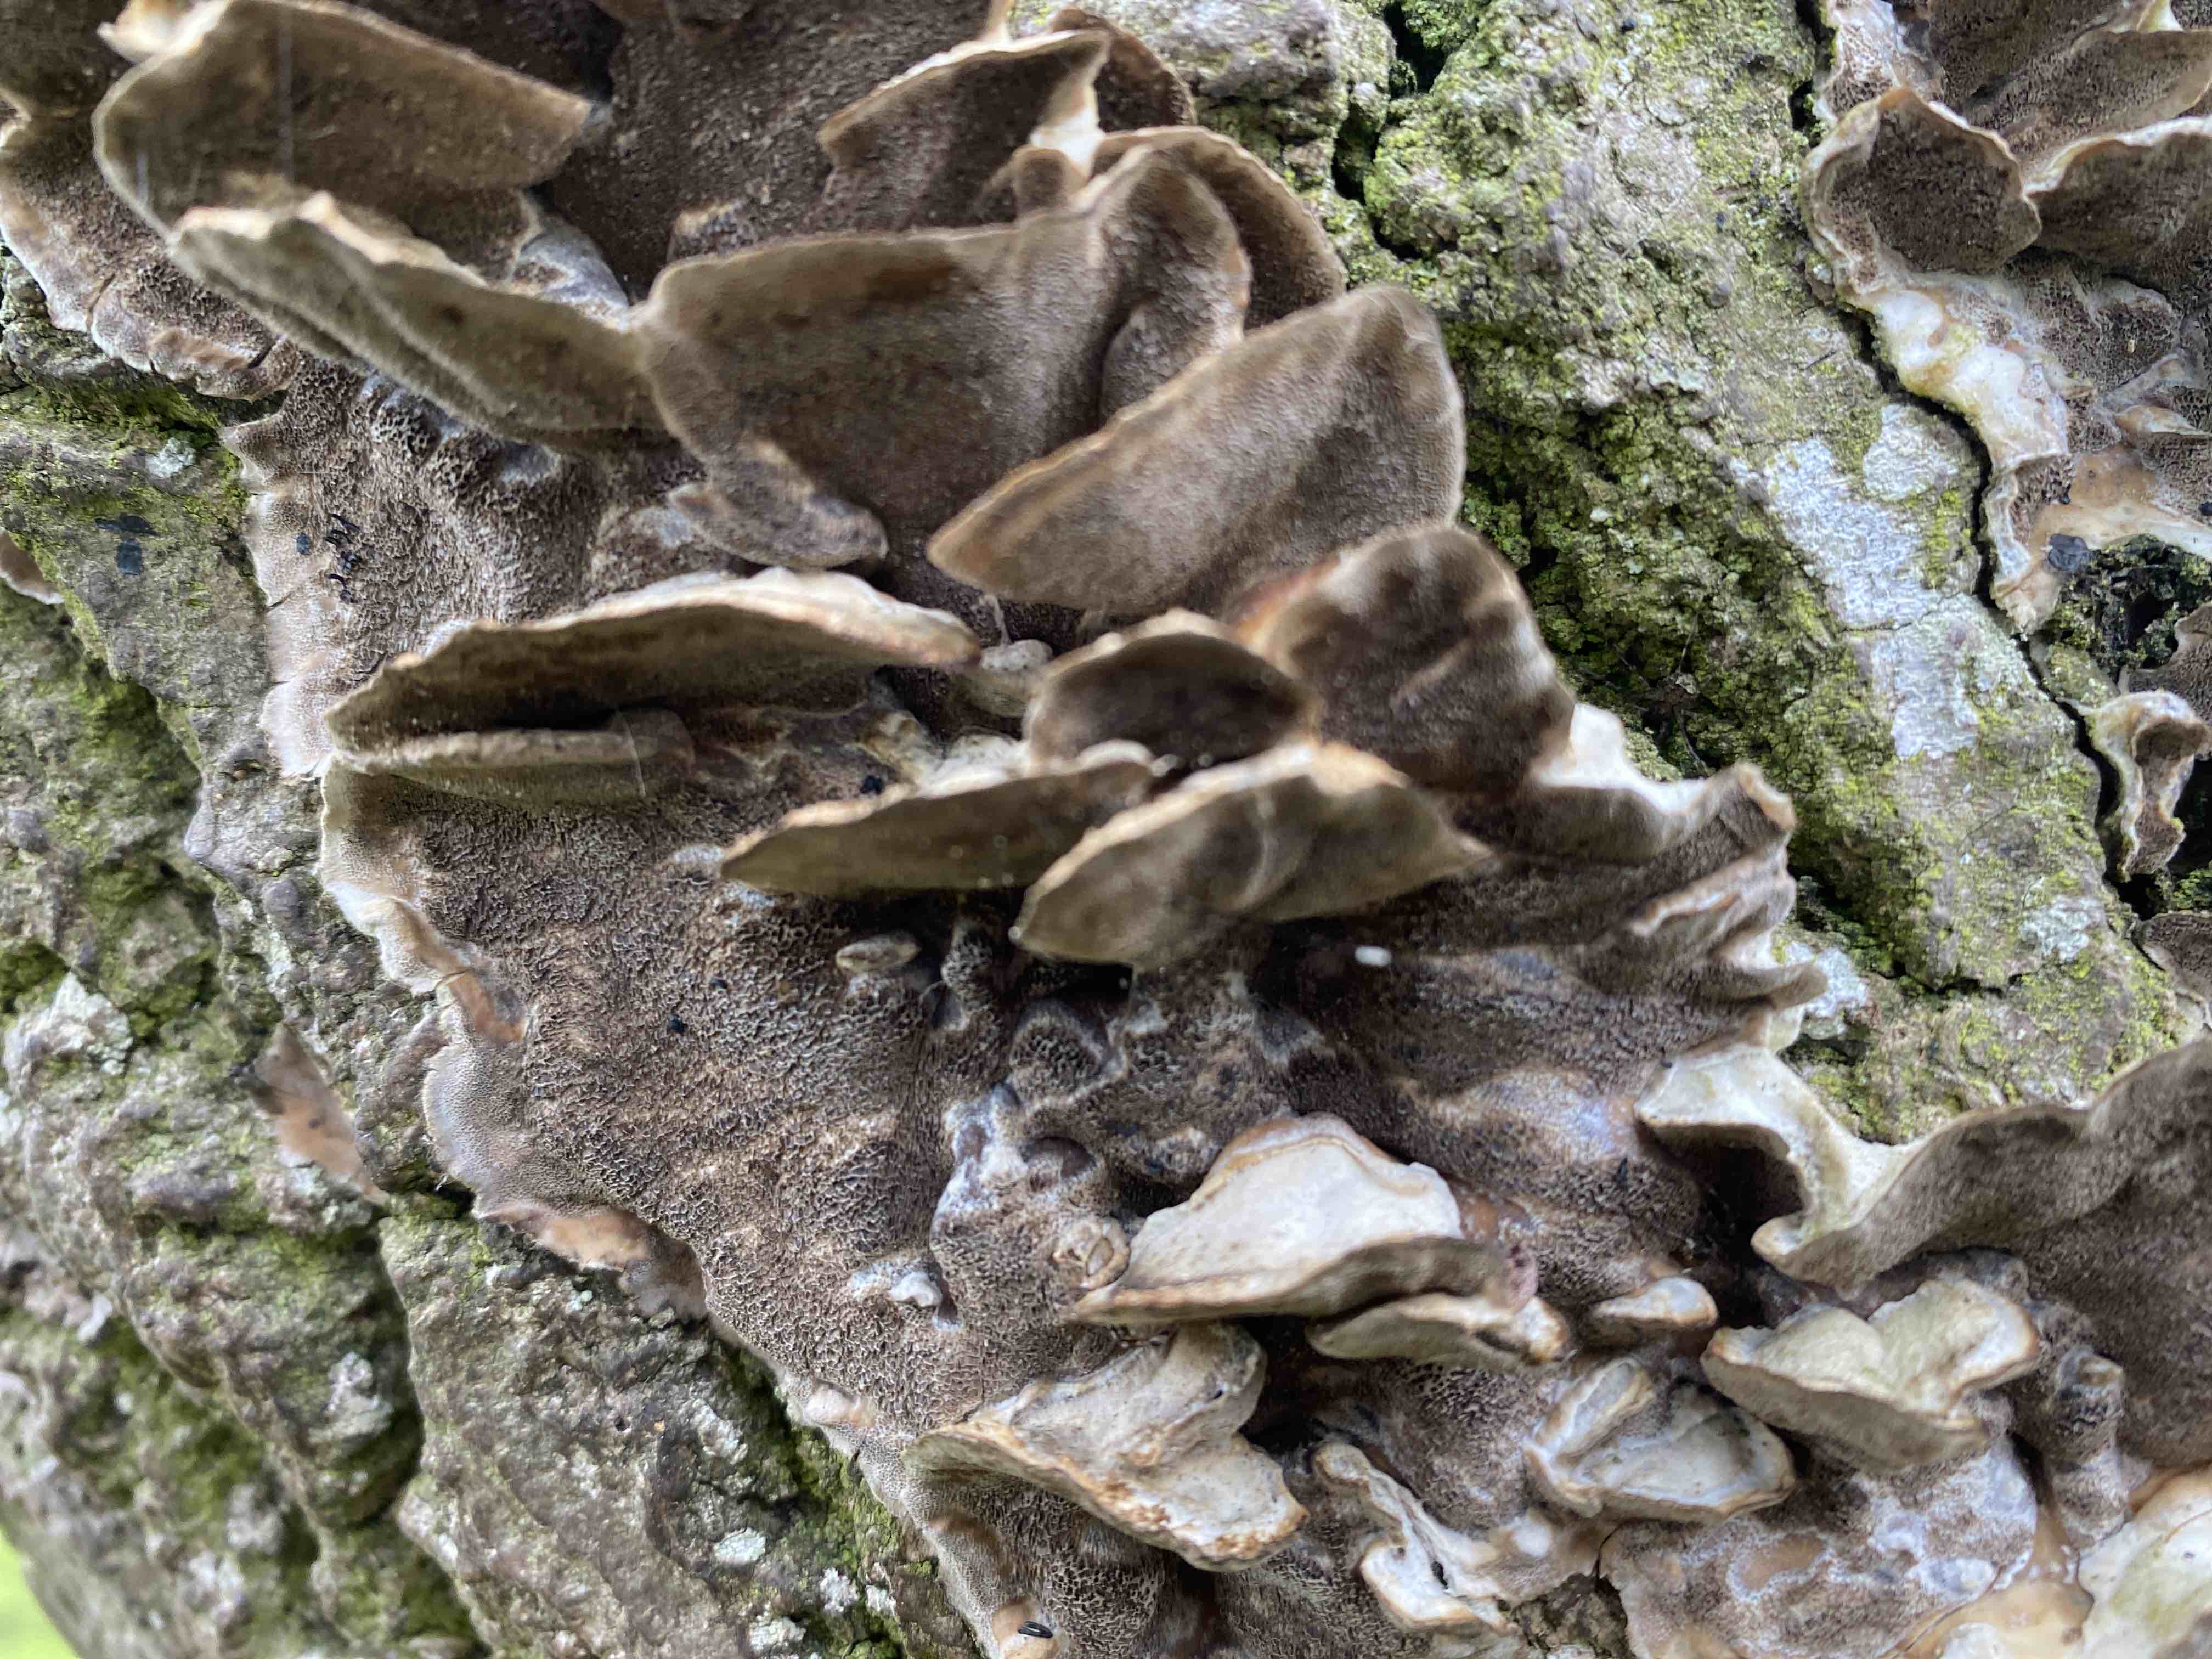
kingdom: Fungi
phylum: Basidiomycota
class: Agaricomycetes
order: Polyporales
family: Phanerochaetaceae
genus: Bjerkandera
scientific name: Bjerkandera adusta
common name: sveden sodporesvamp
